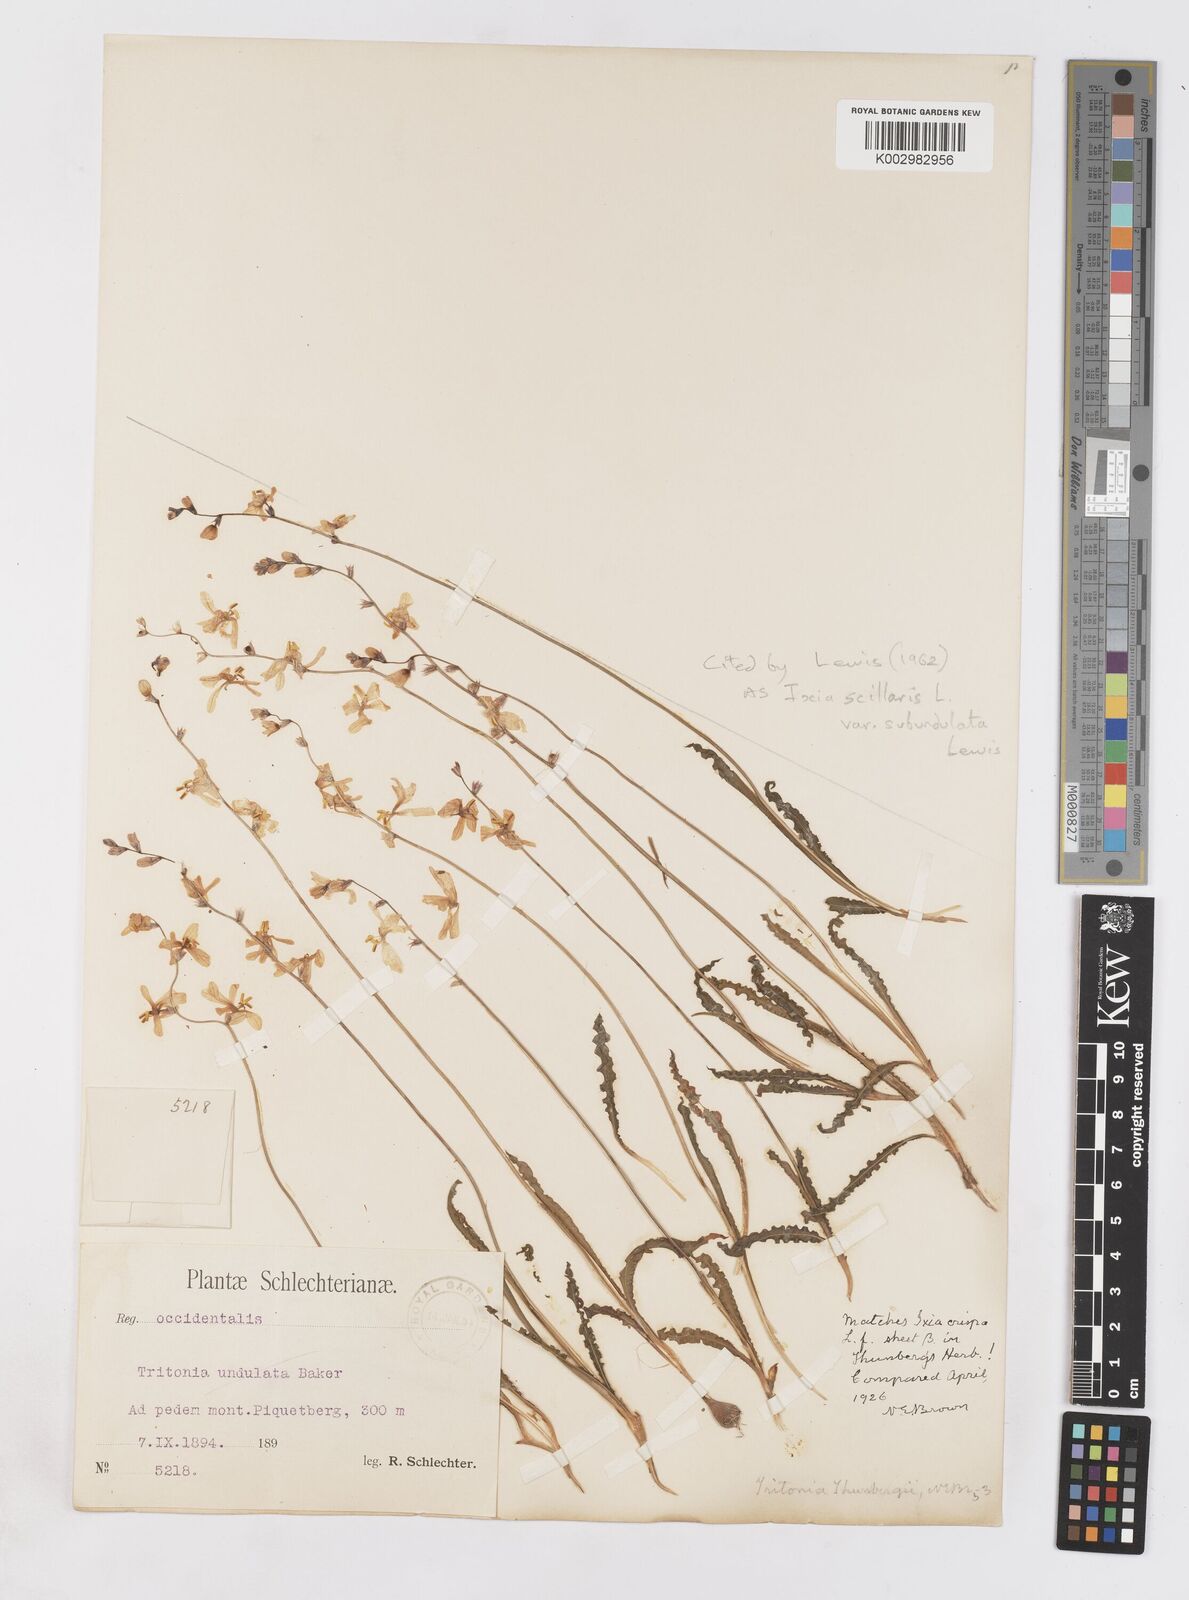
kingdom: Plantae
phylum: Tracheophyta
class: Liliopsida
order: Asparagales
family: Iridaceae
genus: Ixia
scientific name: Ixia scillaris
